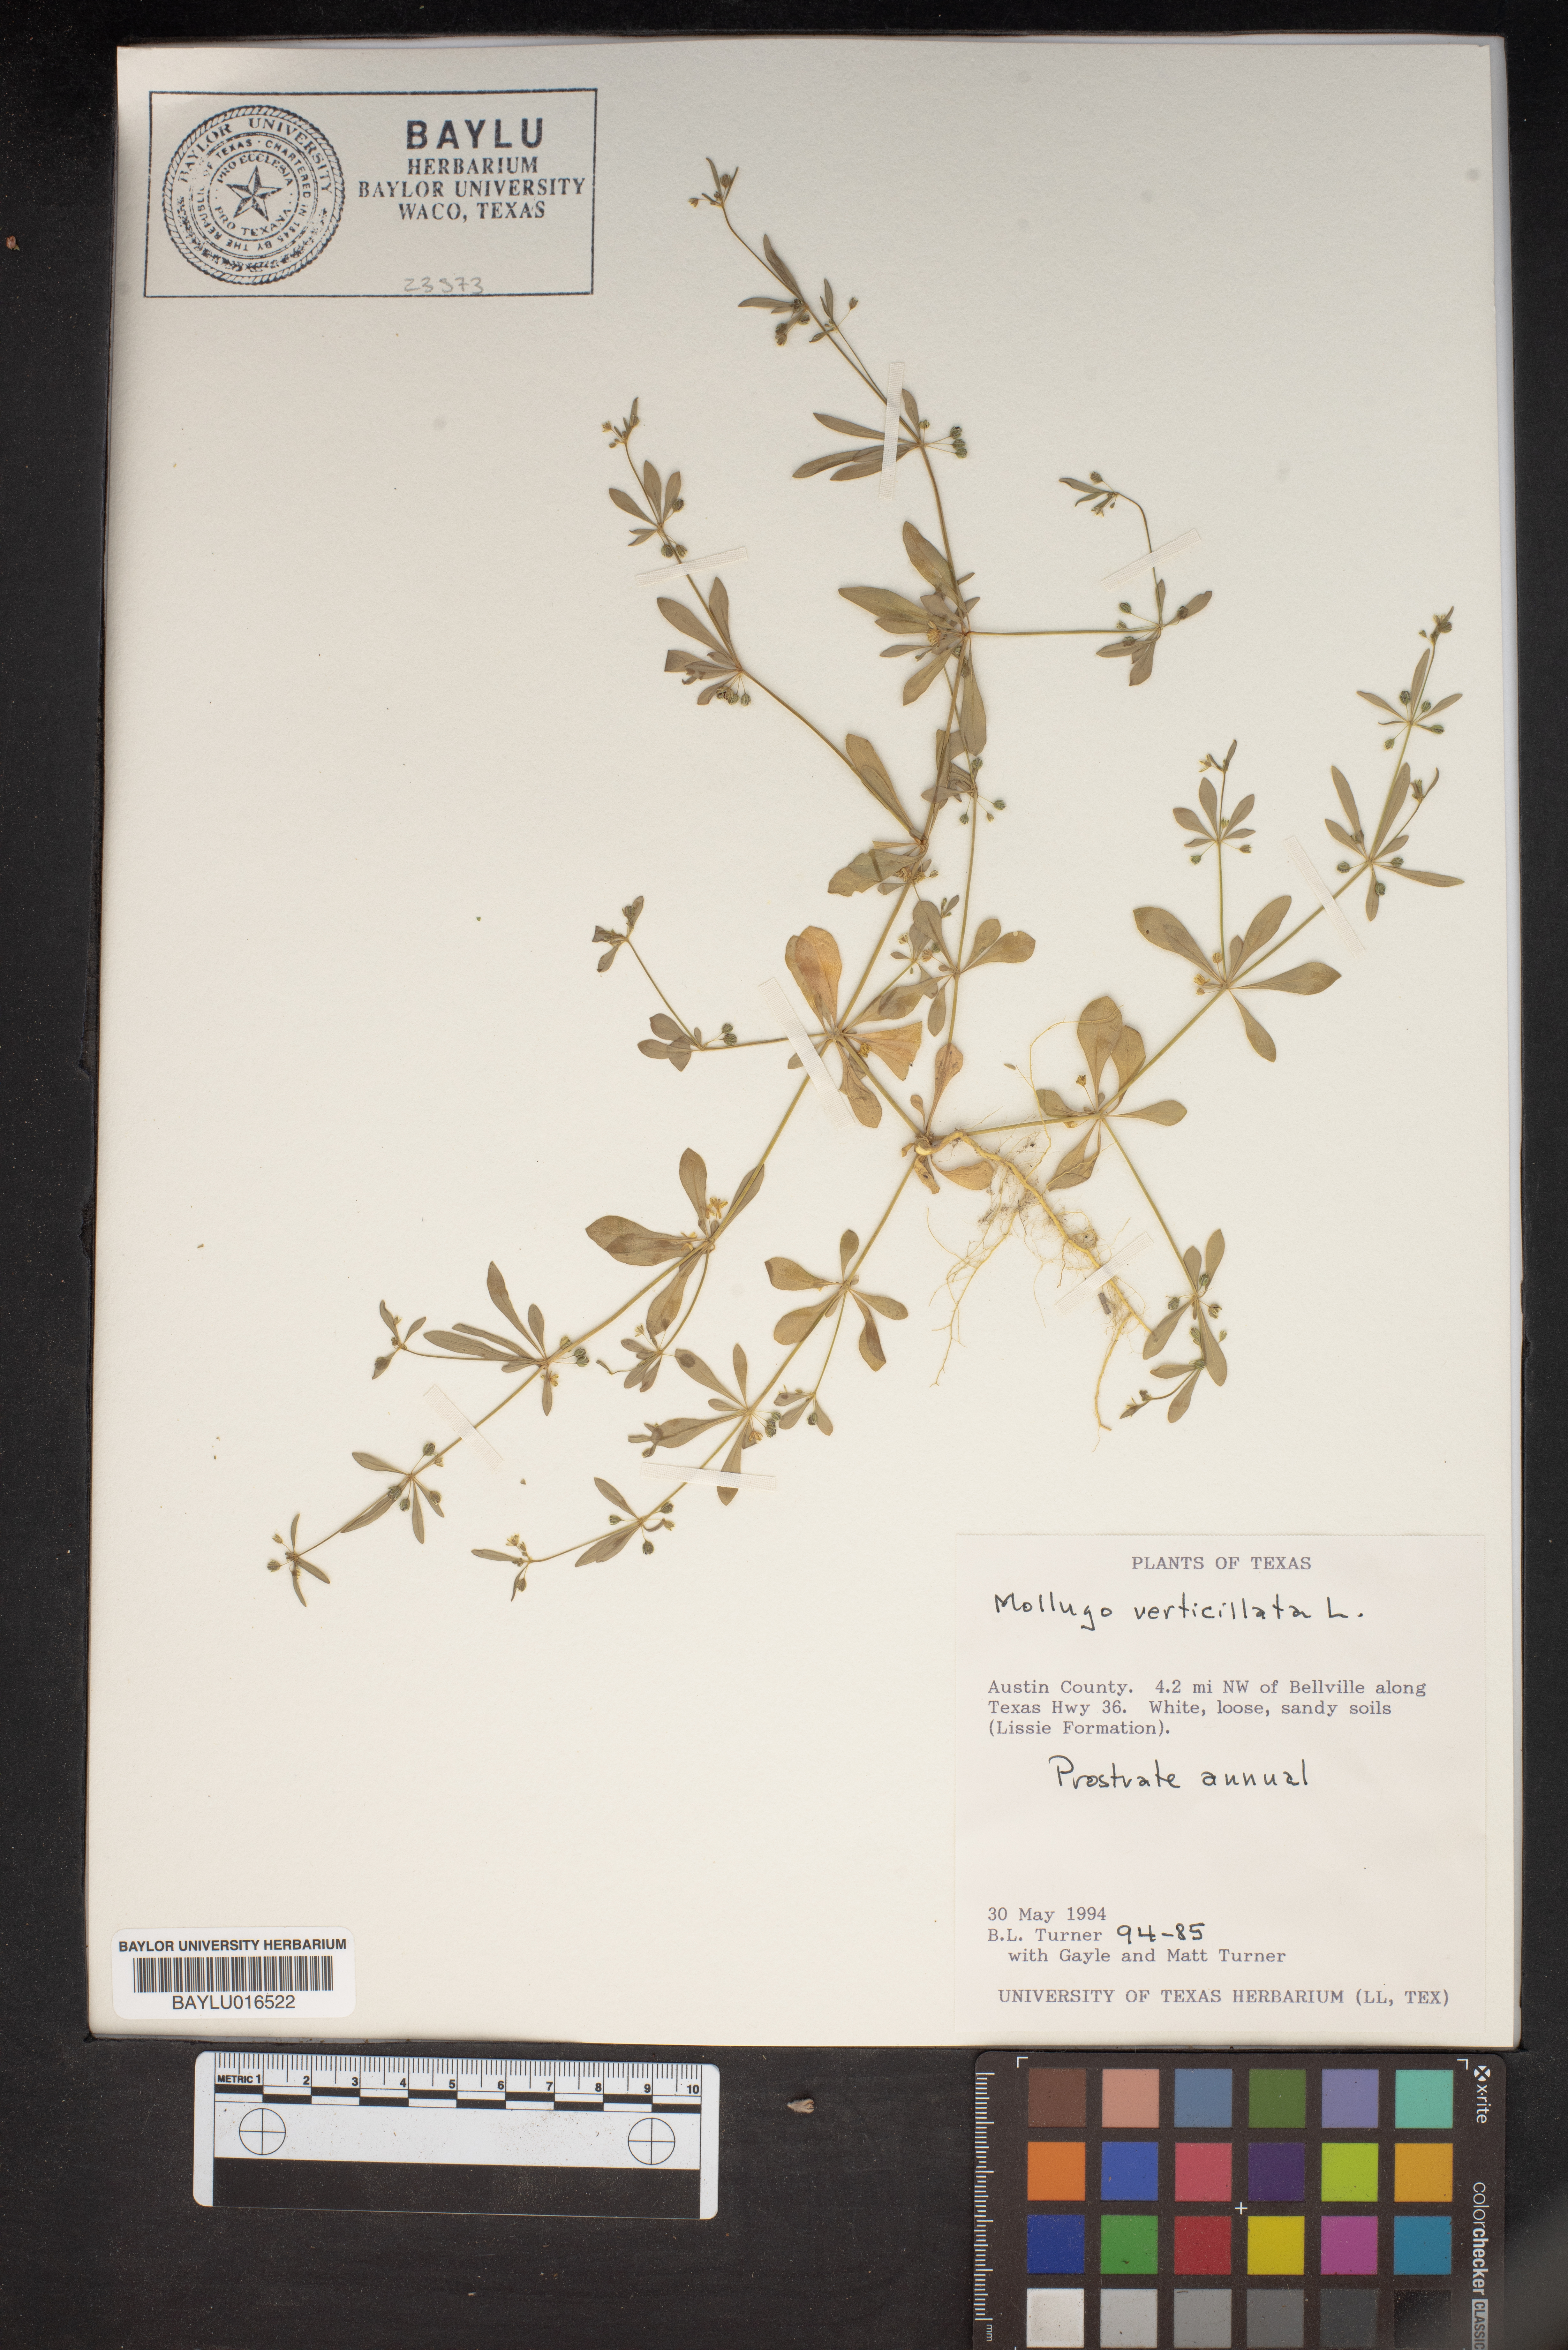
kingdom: Plantae
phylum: Tracheophyta
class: Magnoliopsida
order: Caryophyllales
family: Molluginaceae
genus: Mollugo
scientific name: Mollugo verticillata
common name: Green carpetweed
